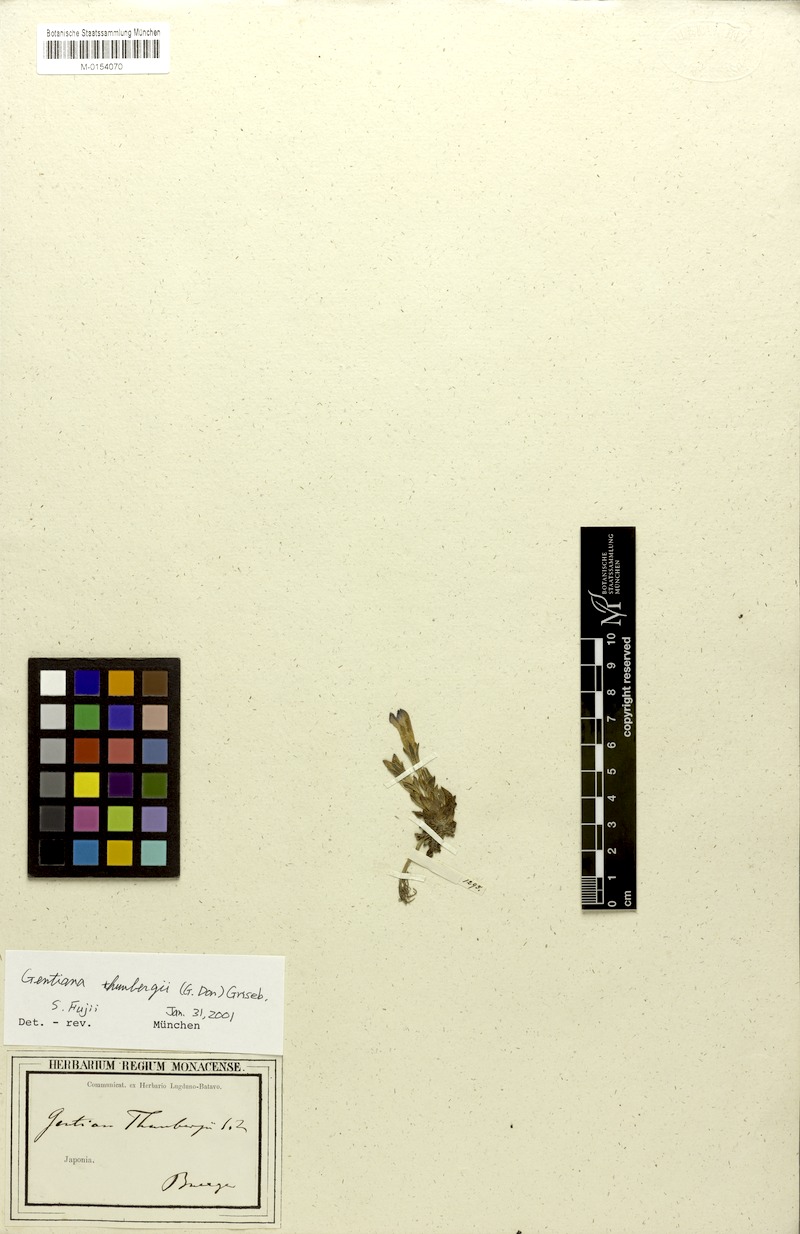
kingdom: Plantae
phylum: Tracheophyta
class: Magnoliopsida
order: Gentianales
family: Gentianaceae
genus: Gentiana
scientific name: Gentiana thunbergii
